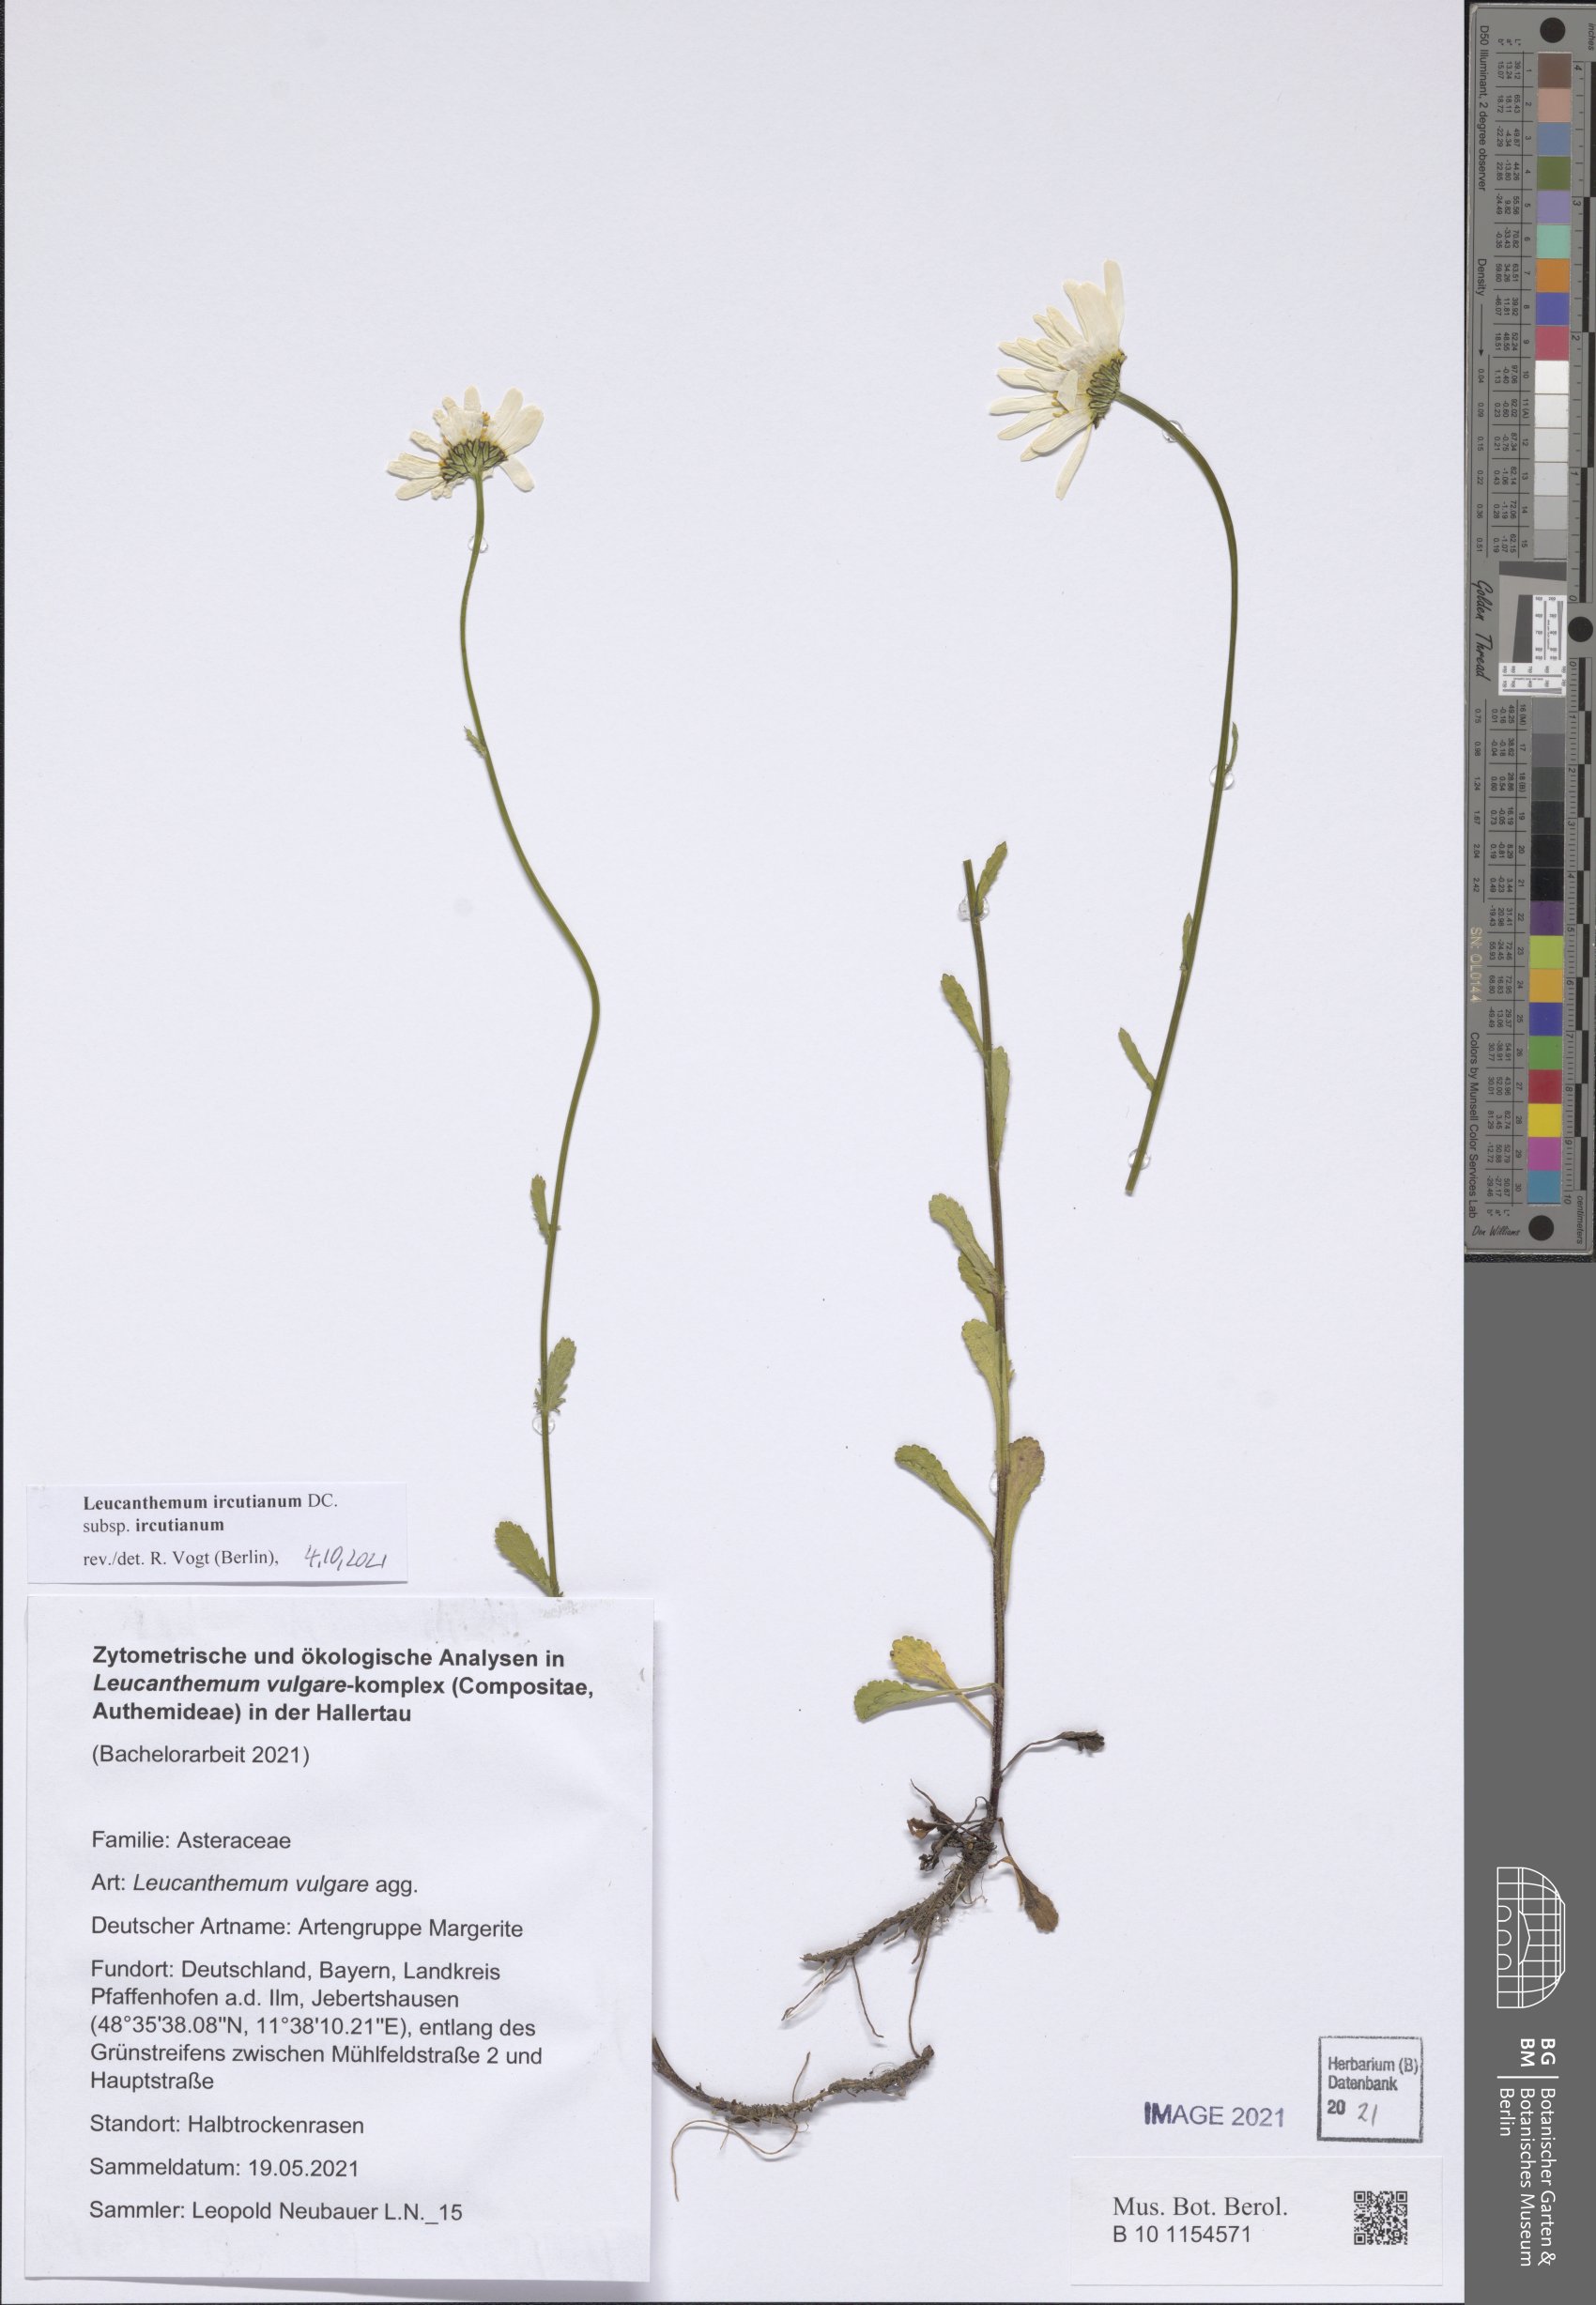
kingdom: Plantae
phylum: Tracheophyta
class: Magnoliopsida
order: Asterales
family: Asteraceae
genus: Leucanthemum
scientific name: Leucanthemum ircutianum
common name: Daisy
